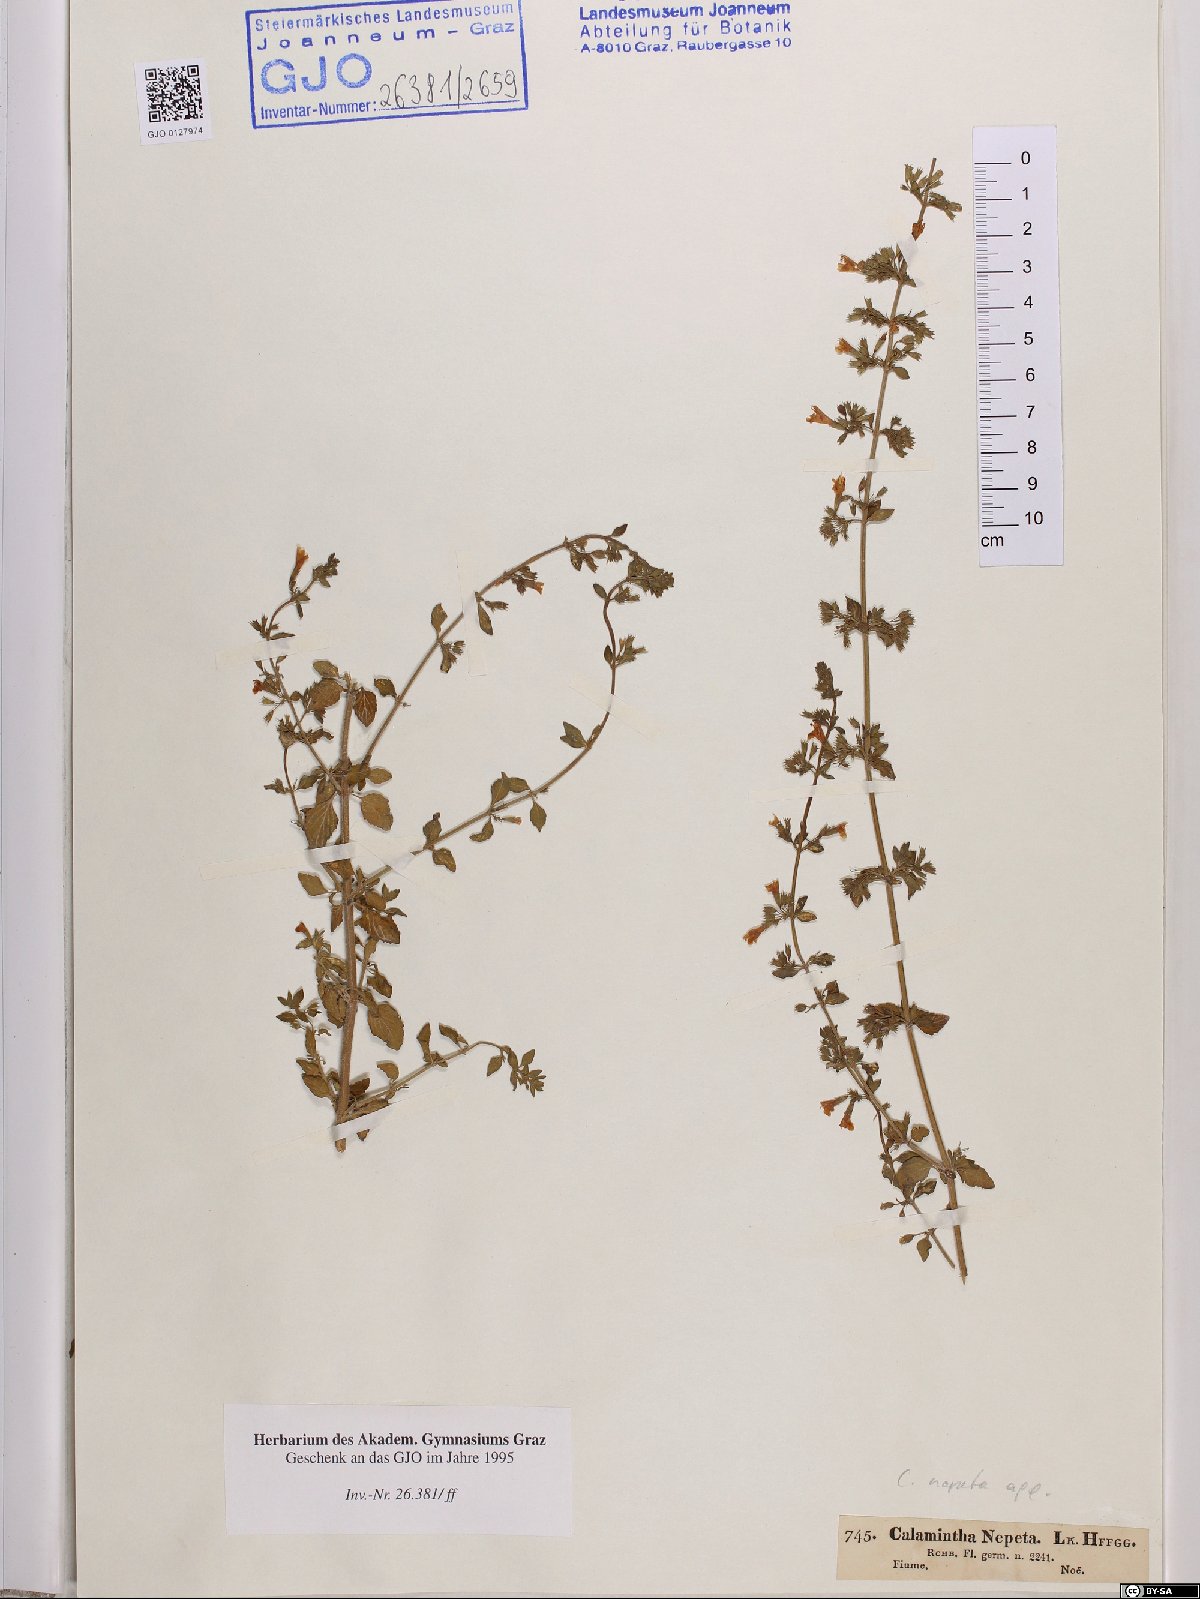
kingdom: Plantae
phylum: Tracheophyta
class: Magnoliopsida
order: Lamiales
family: Lamiaceae
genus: Clinopodium
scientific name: Clinopodium nepeta
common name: Lesser calamint
